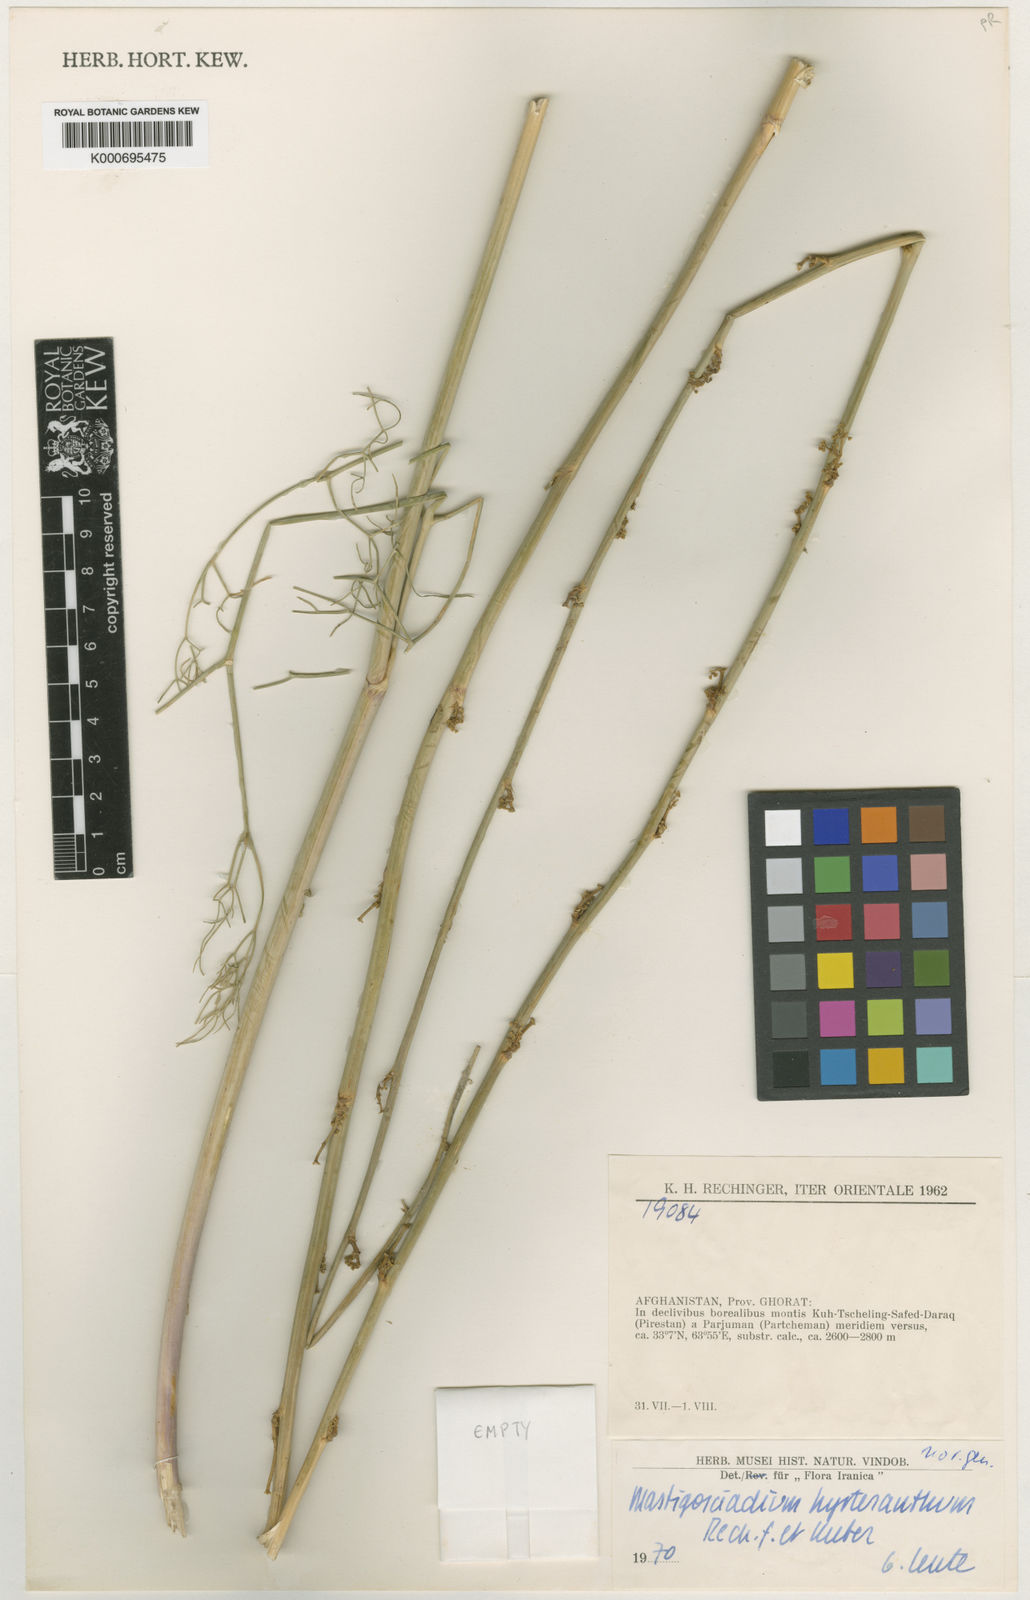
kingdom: Plantae
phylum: Tracheophyta
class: Magnoliopsida
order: Apiales
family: Apiaceae
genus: Mastigosciadium
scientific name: Mastigosciadium
